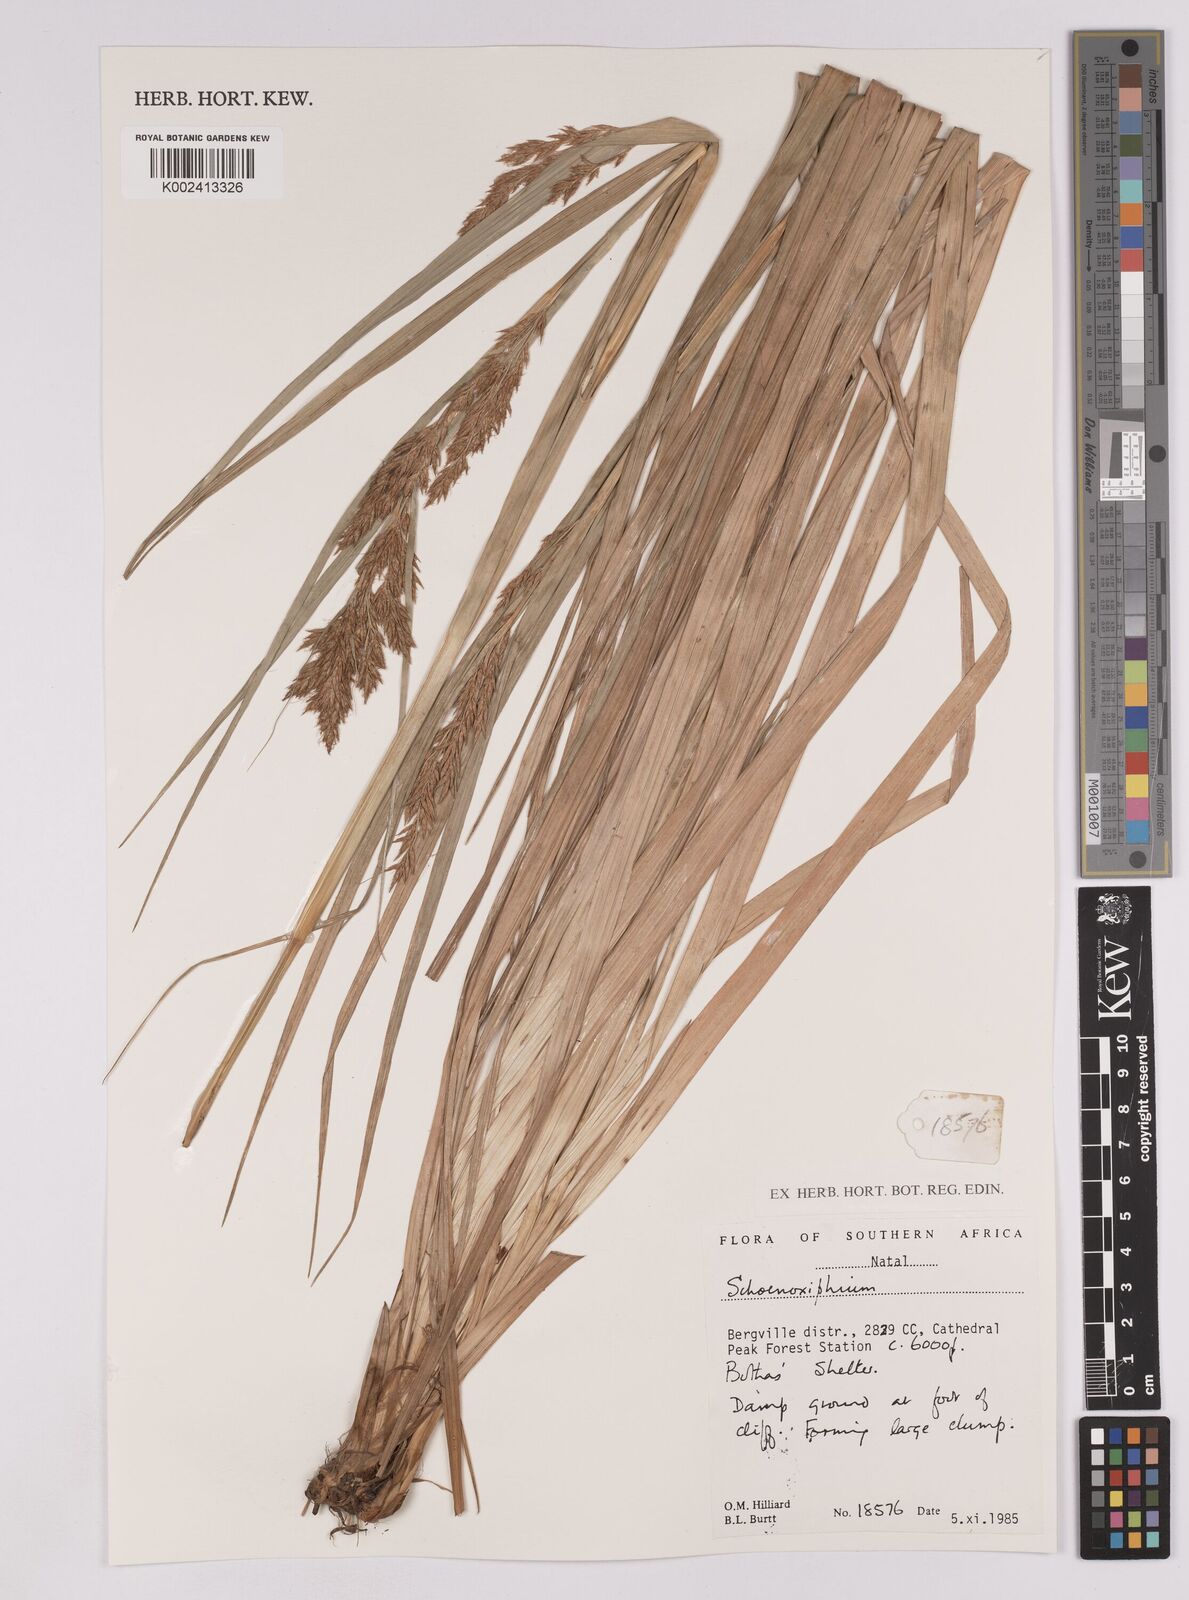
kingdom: Plantae
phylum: Tracheophyta
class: Liliopsida
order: Poales
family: Cyperaceae
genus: Carex
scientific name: Carex
